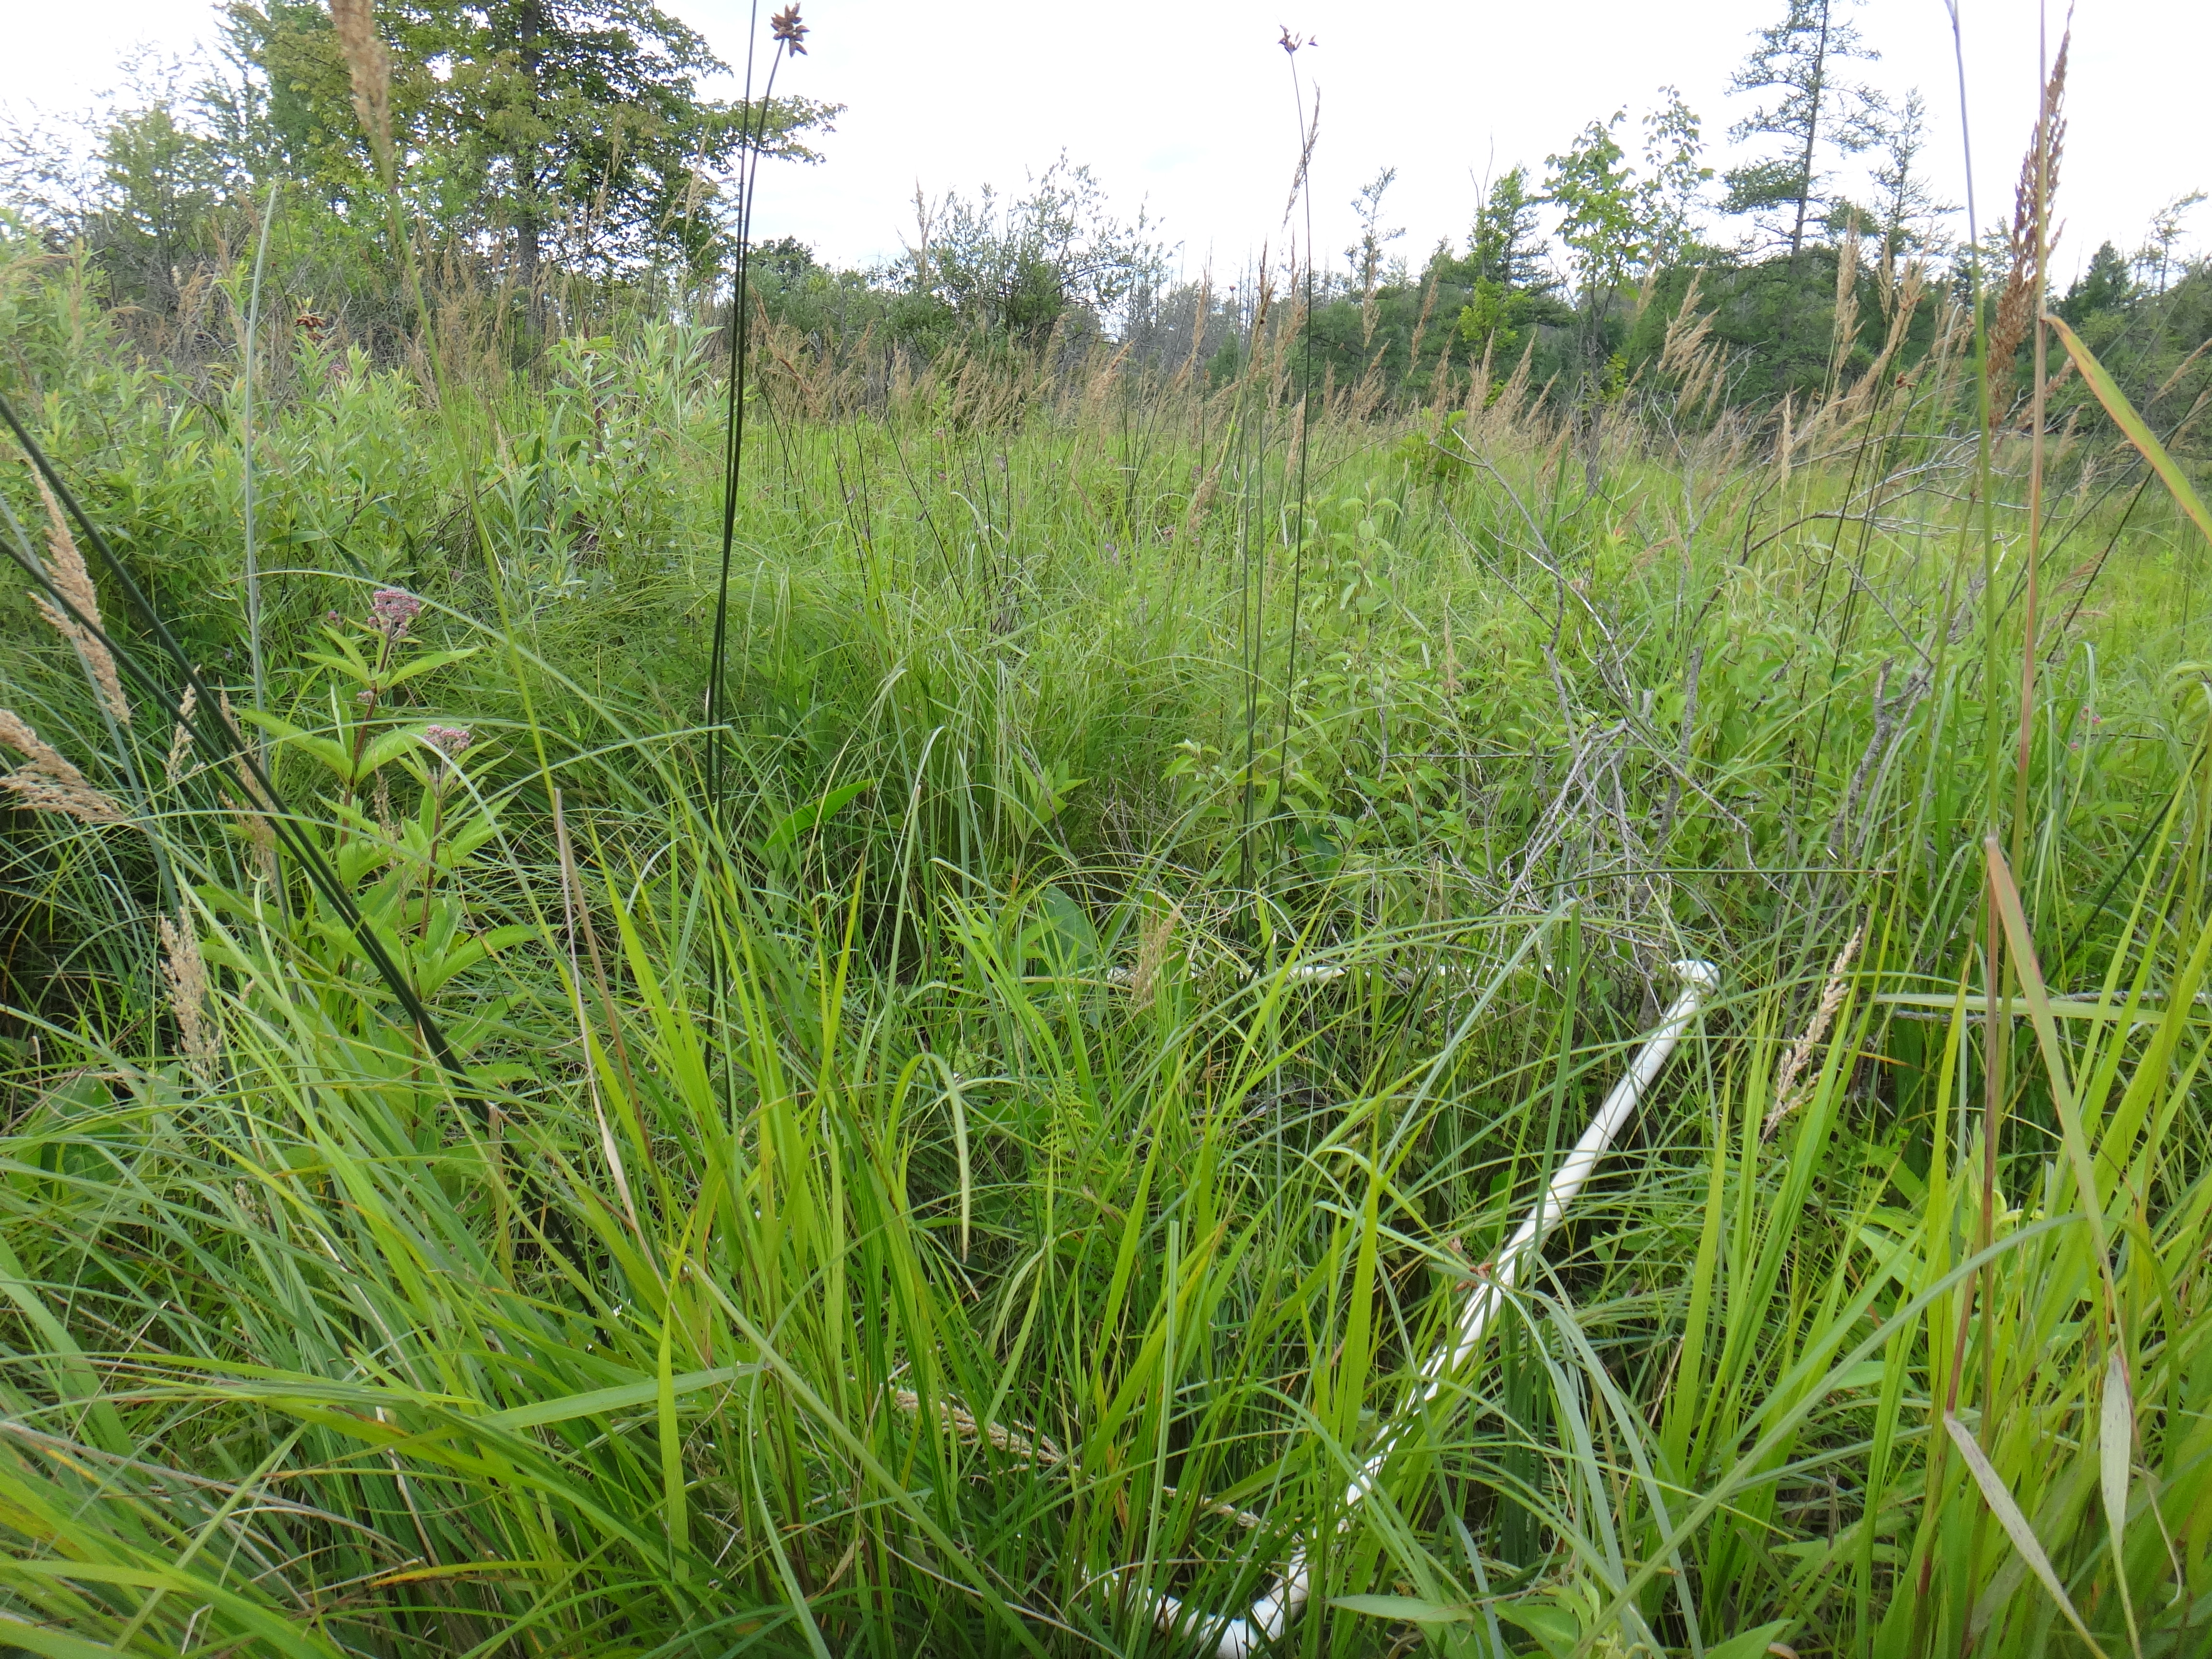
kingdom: Plantae
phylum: Tracheophyta
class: Magnoliopsida
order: Gentianales
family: Rubiaceae
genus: Galium
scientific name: Galium asprellum
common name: Rough bedstraw
